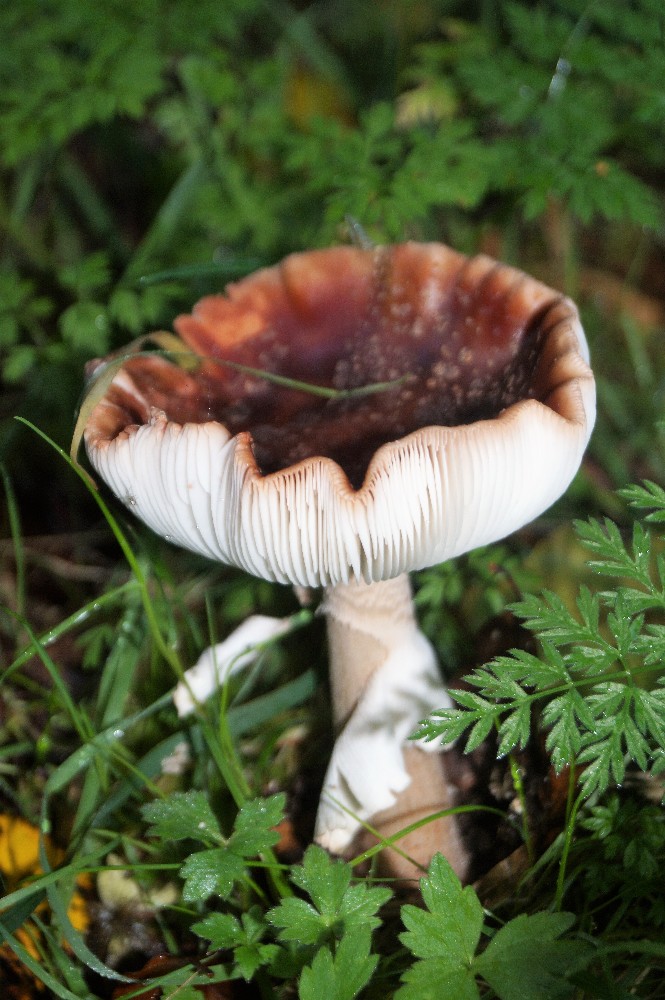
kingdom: Fungi
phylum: Basidiomycota
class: Agaricomycetes
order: Agaricales
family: Amanitaceae
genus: Amanita
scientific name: Amanita rubescens
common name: rødmende fluesvamp
